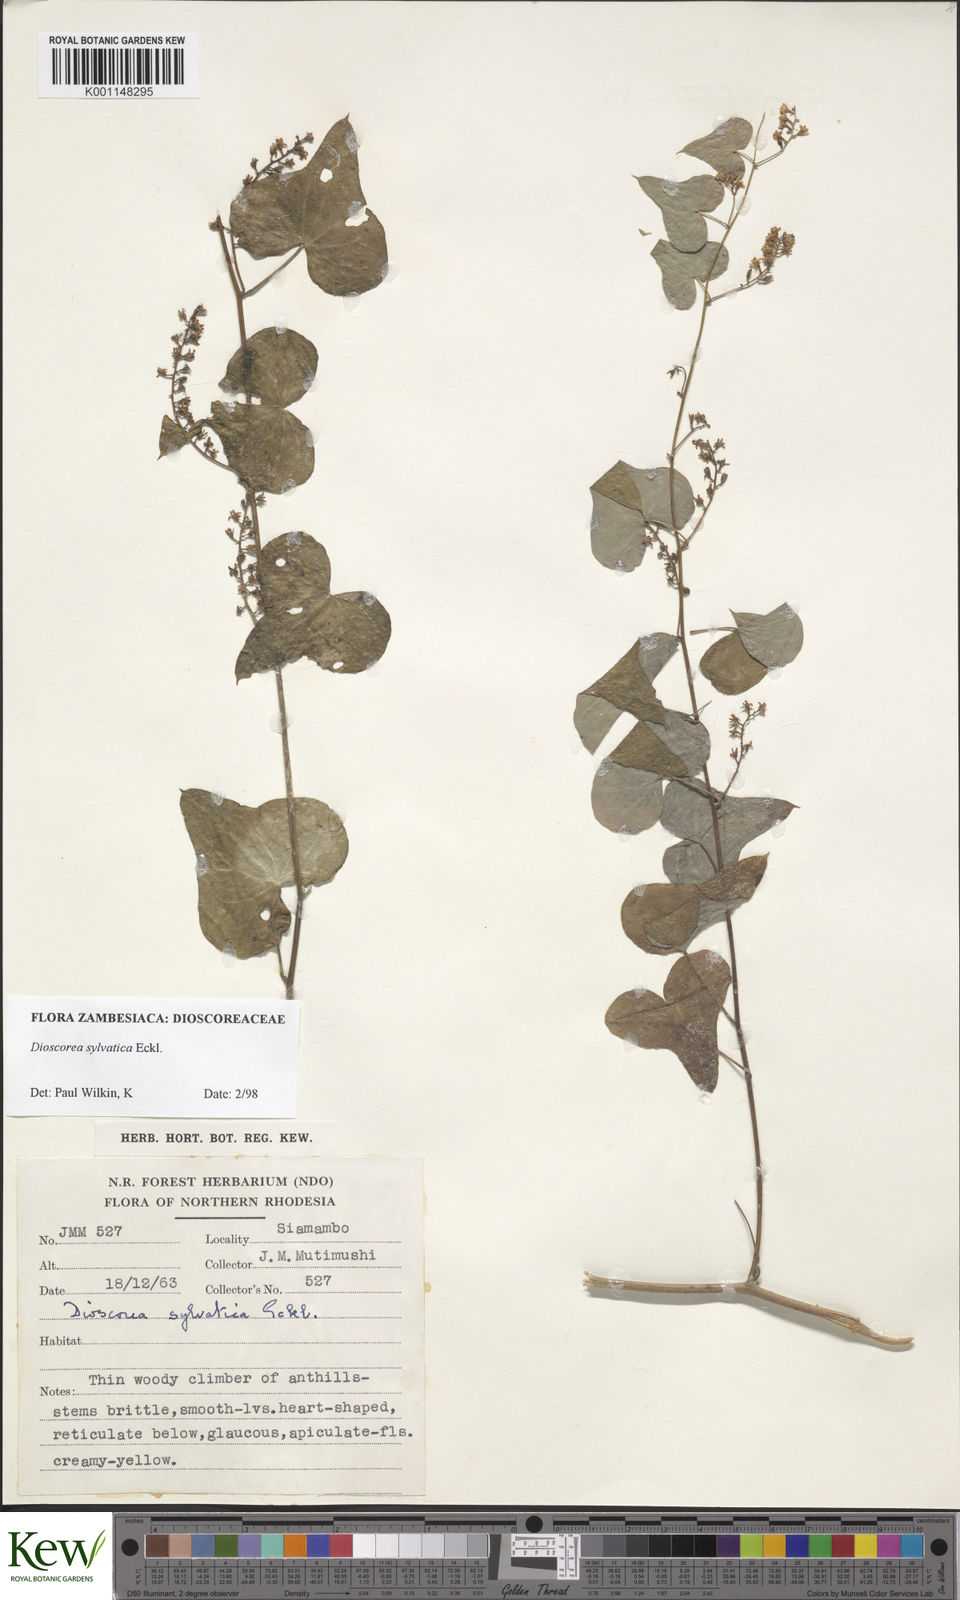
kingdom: Plantae
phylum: Tracheophyta
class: Liliopsida
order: Dioscoreales
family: Dioscoreaceae
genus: Dioscorea
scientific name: Dioscorea sylvatica
